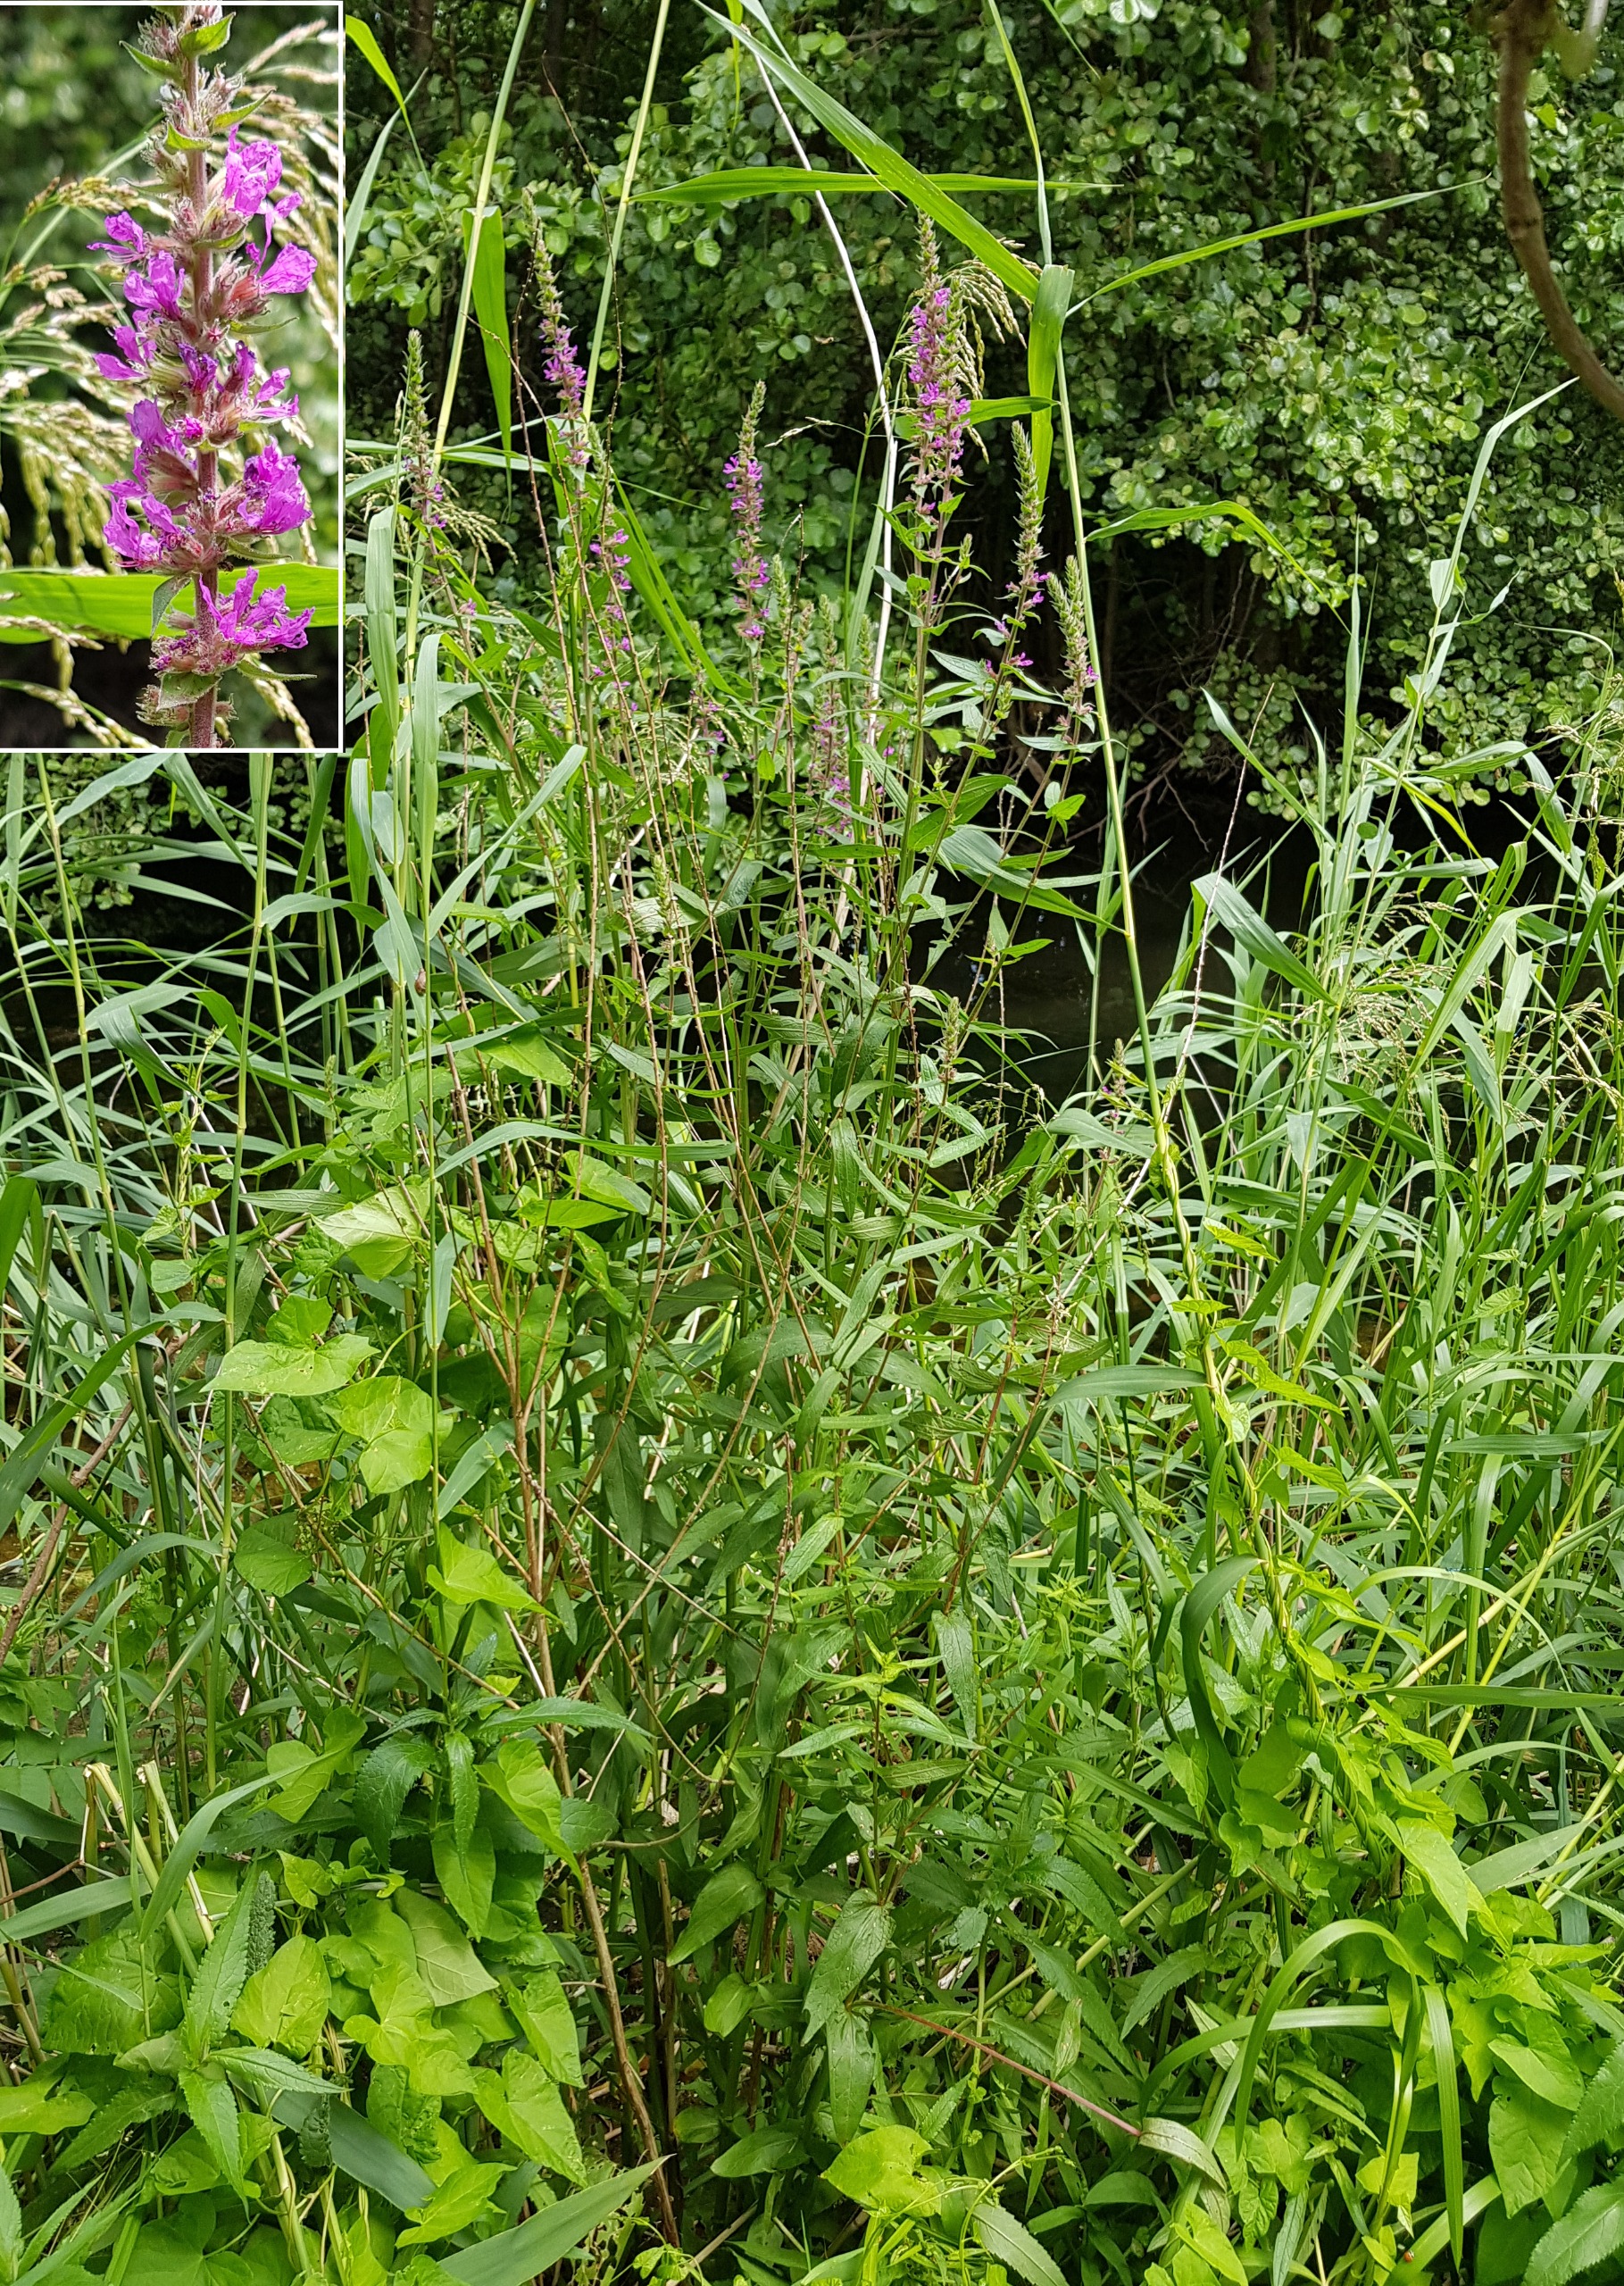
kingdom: Plantae
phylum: Tracheophyta
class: Magnoliopsida
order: Myrtales
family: Lythraceae
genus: Lythrum
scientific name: Lythrum salicaria
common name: Kattehale
